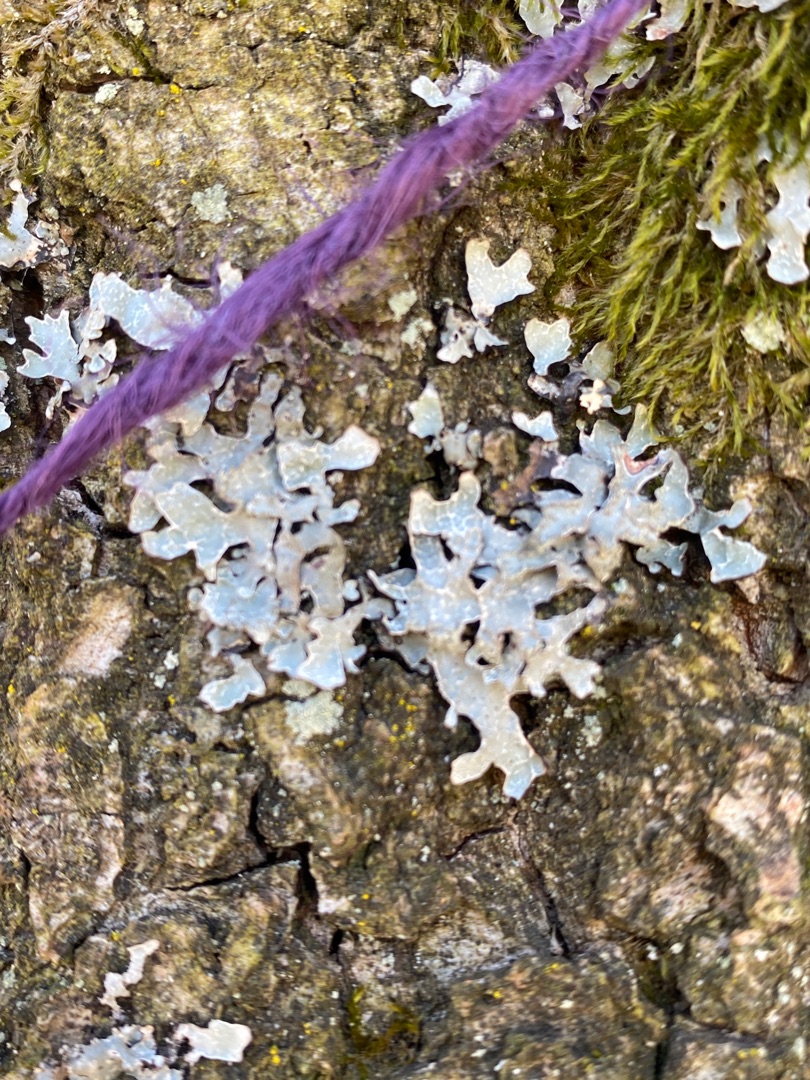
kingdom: Fungi
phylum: Ascomycota
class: Lecanoromycetes
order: Lecanorales
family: Parmeliaceae
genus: Parmelia
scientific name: Parmelia sulcata
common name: Rynket skållav
